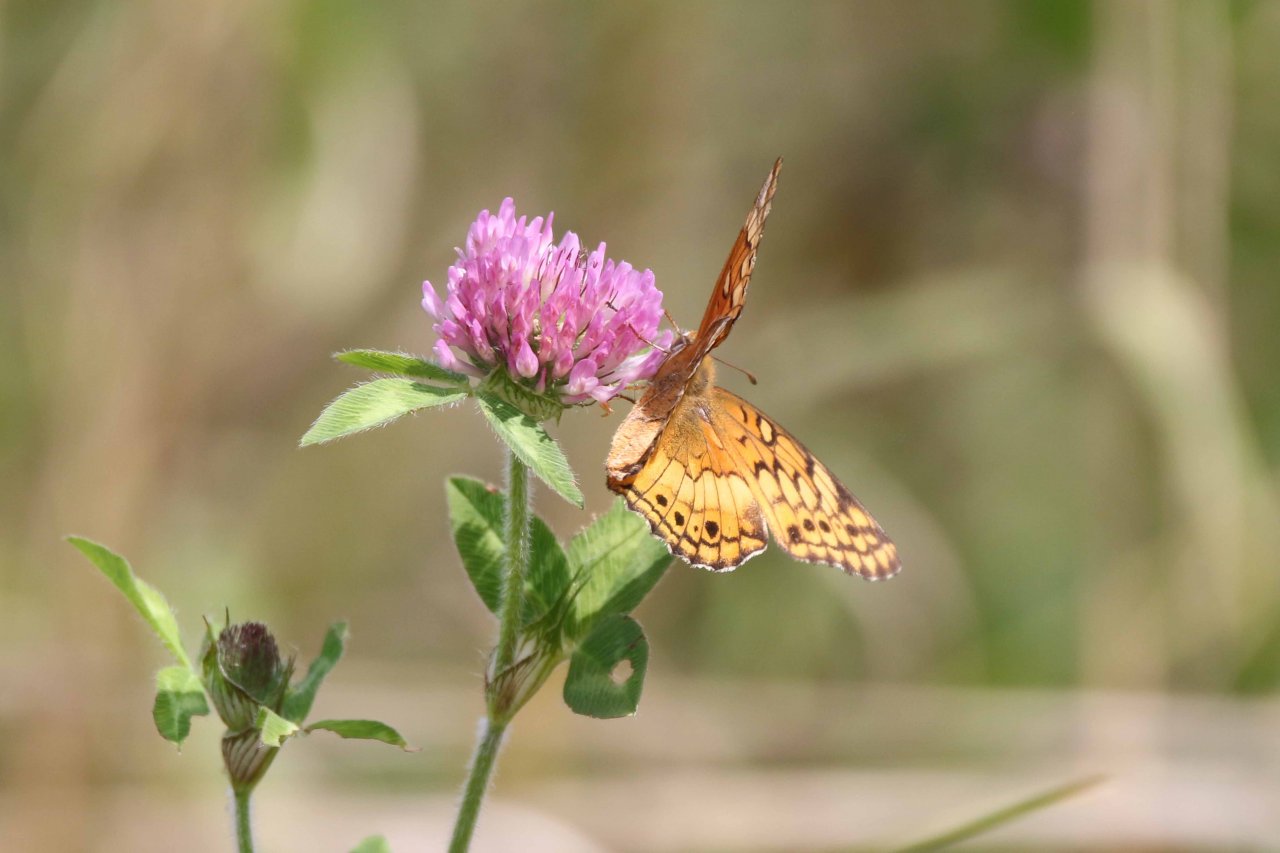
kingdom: Animalia
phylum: Arthropoda
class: Insecta
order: Lepidoptera
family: Nymphalidae
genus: Euptoieta
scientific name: Euptoieta claudia
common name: Variegated Fritillary
